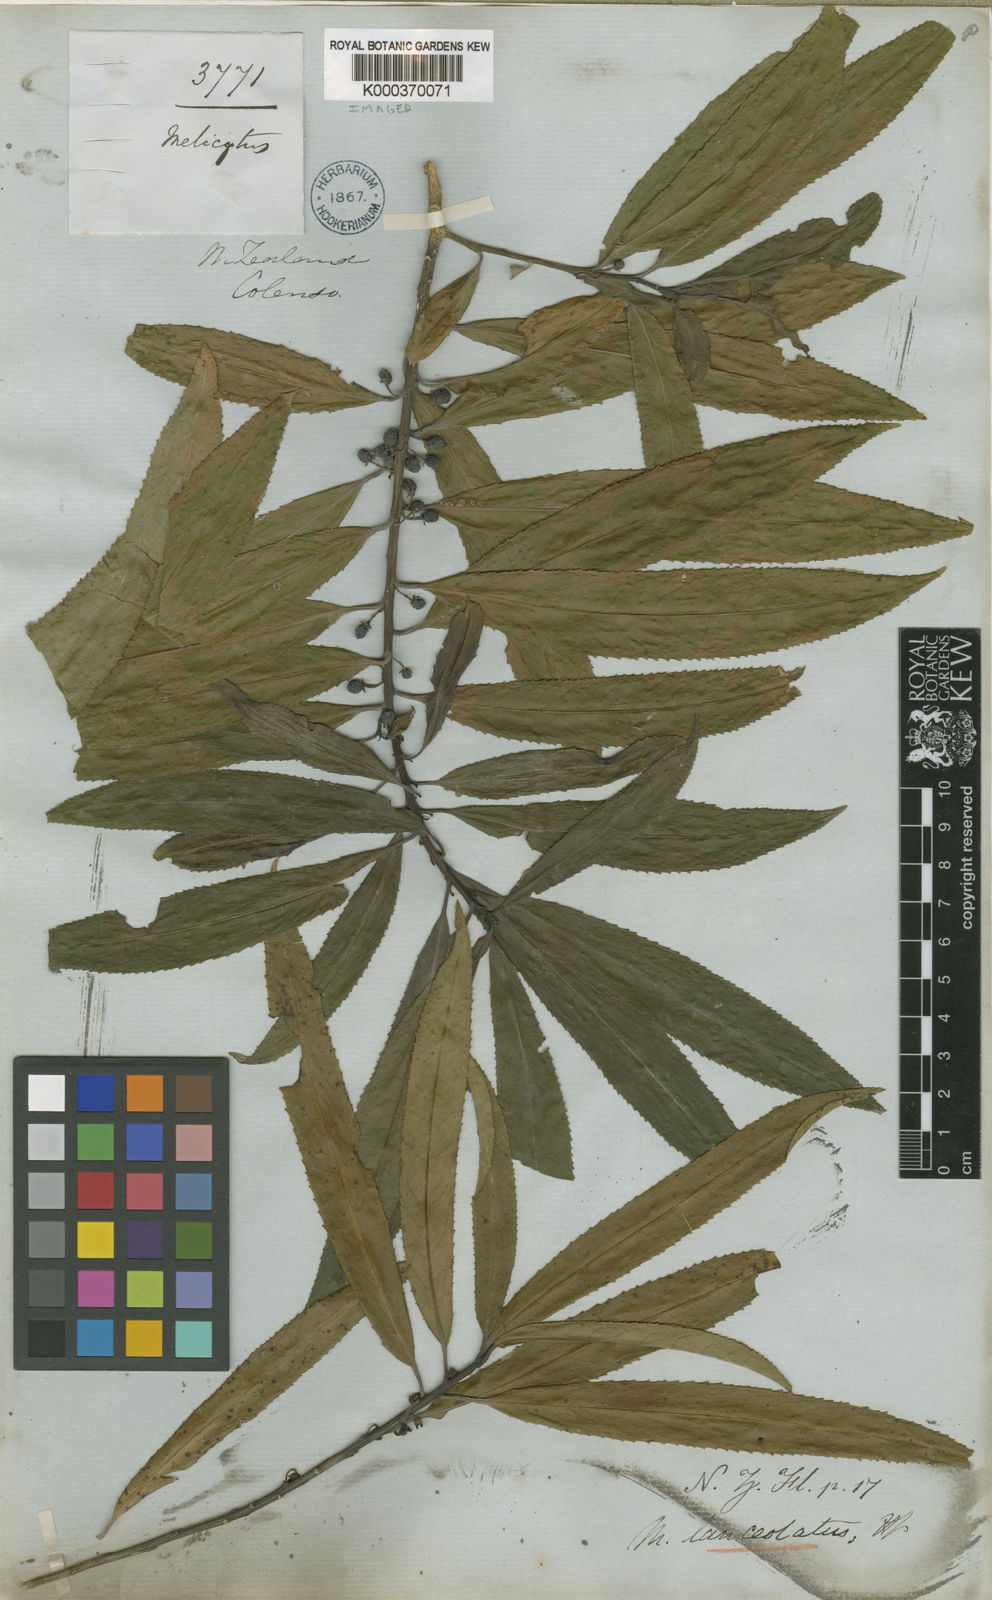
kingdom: Plantae
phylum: Tracheophyta
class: Magnoliopsida
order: Malpighiales
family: Violaceae
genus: Melicytus
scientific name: Melicytus lanceolatus
